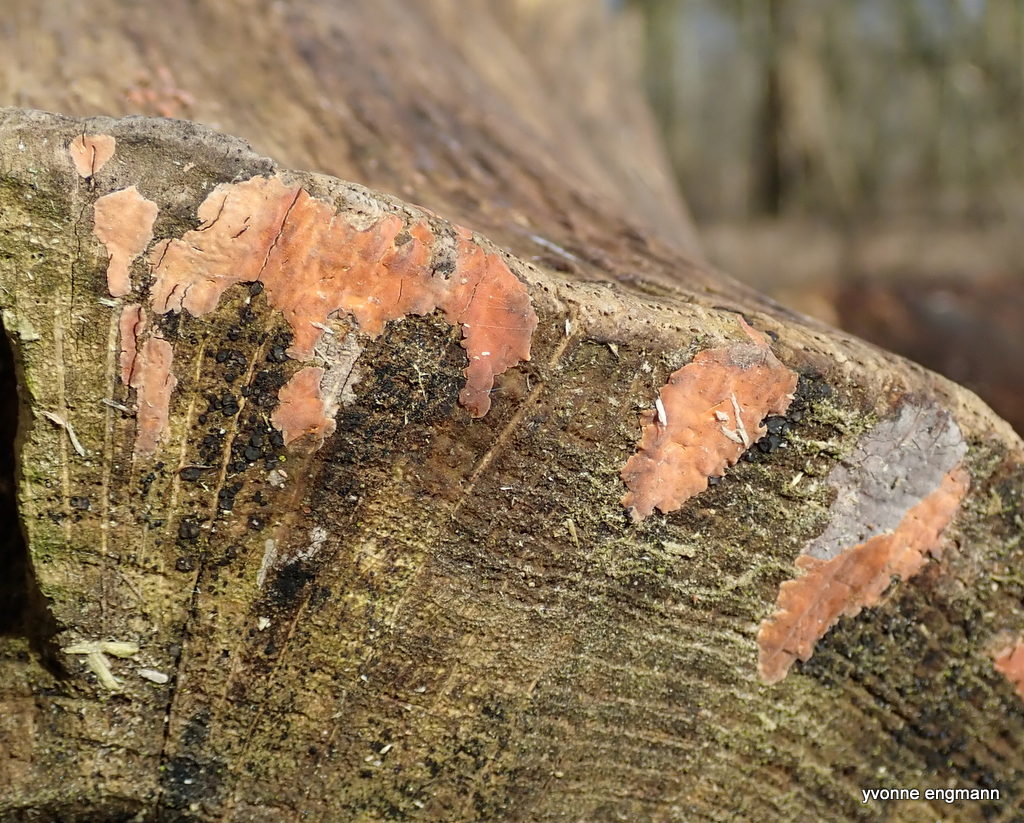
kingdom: Fungi
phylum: Basidiomycota
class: Agaricomycetes
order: Russulales
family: Peniophoraceae
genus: Peniophora
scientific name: Peniophora incarnata
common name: laksefarvet voksskind
